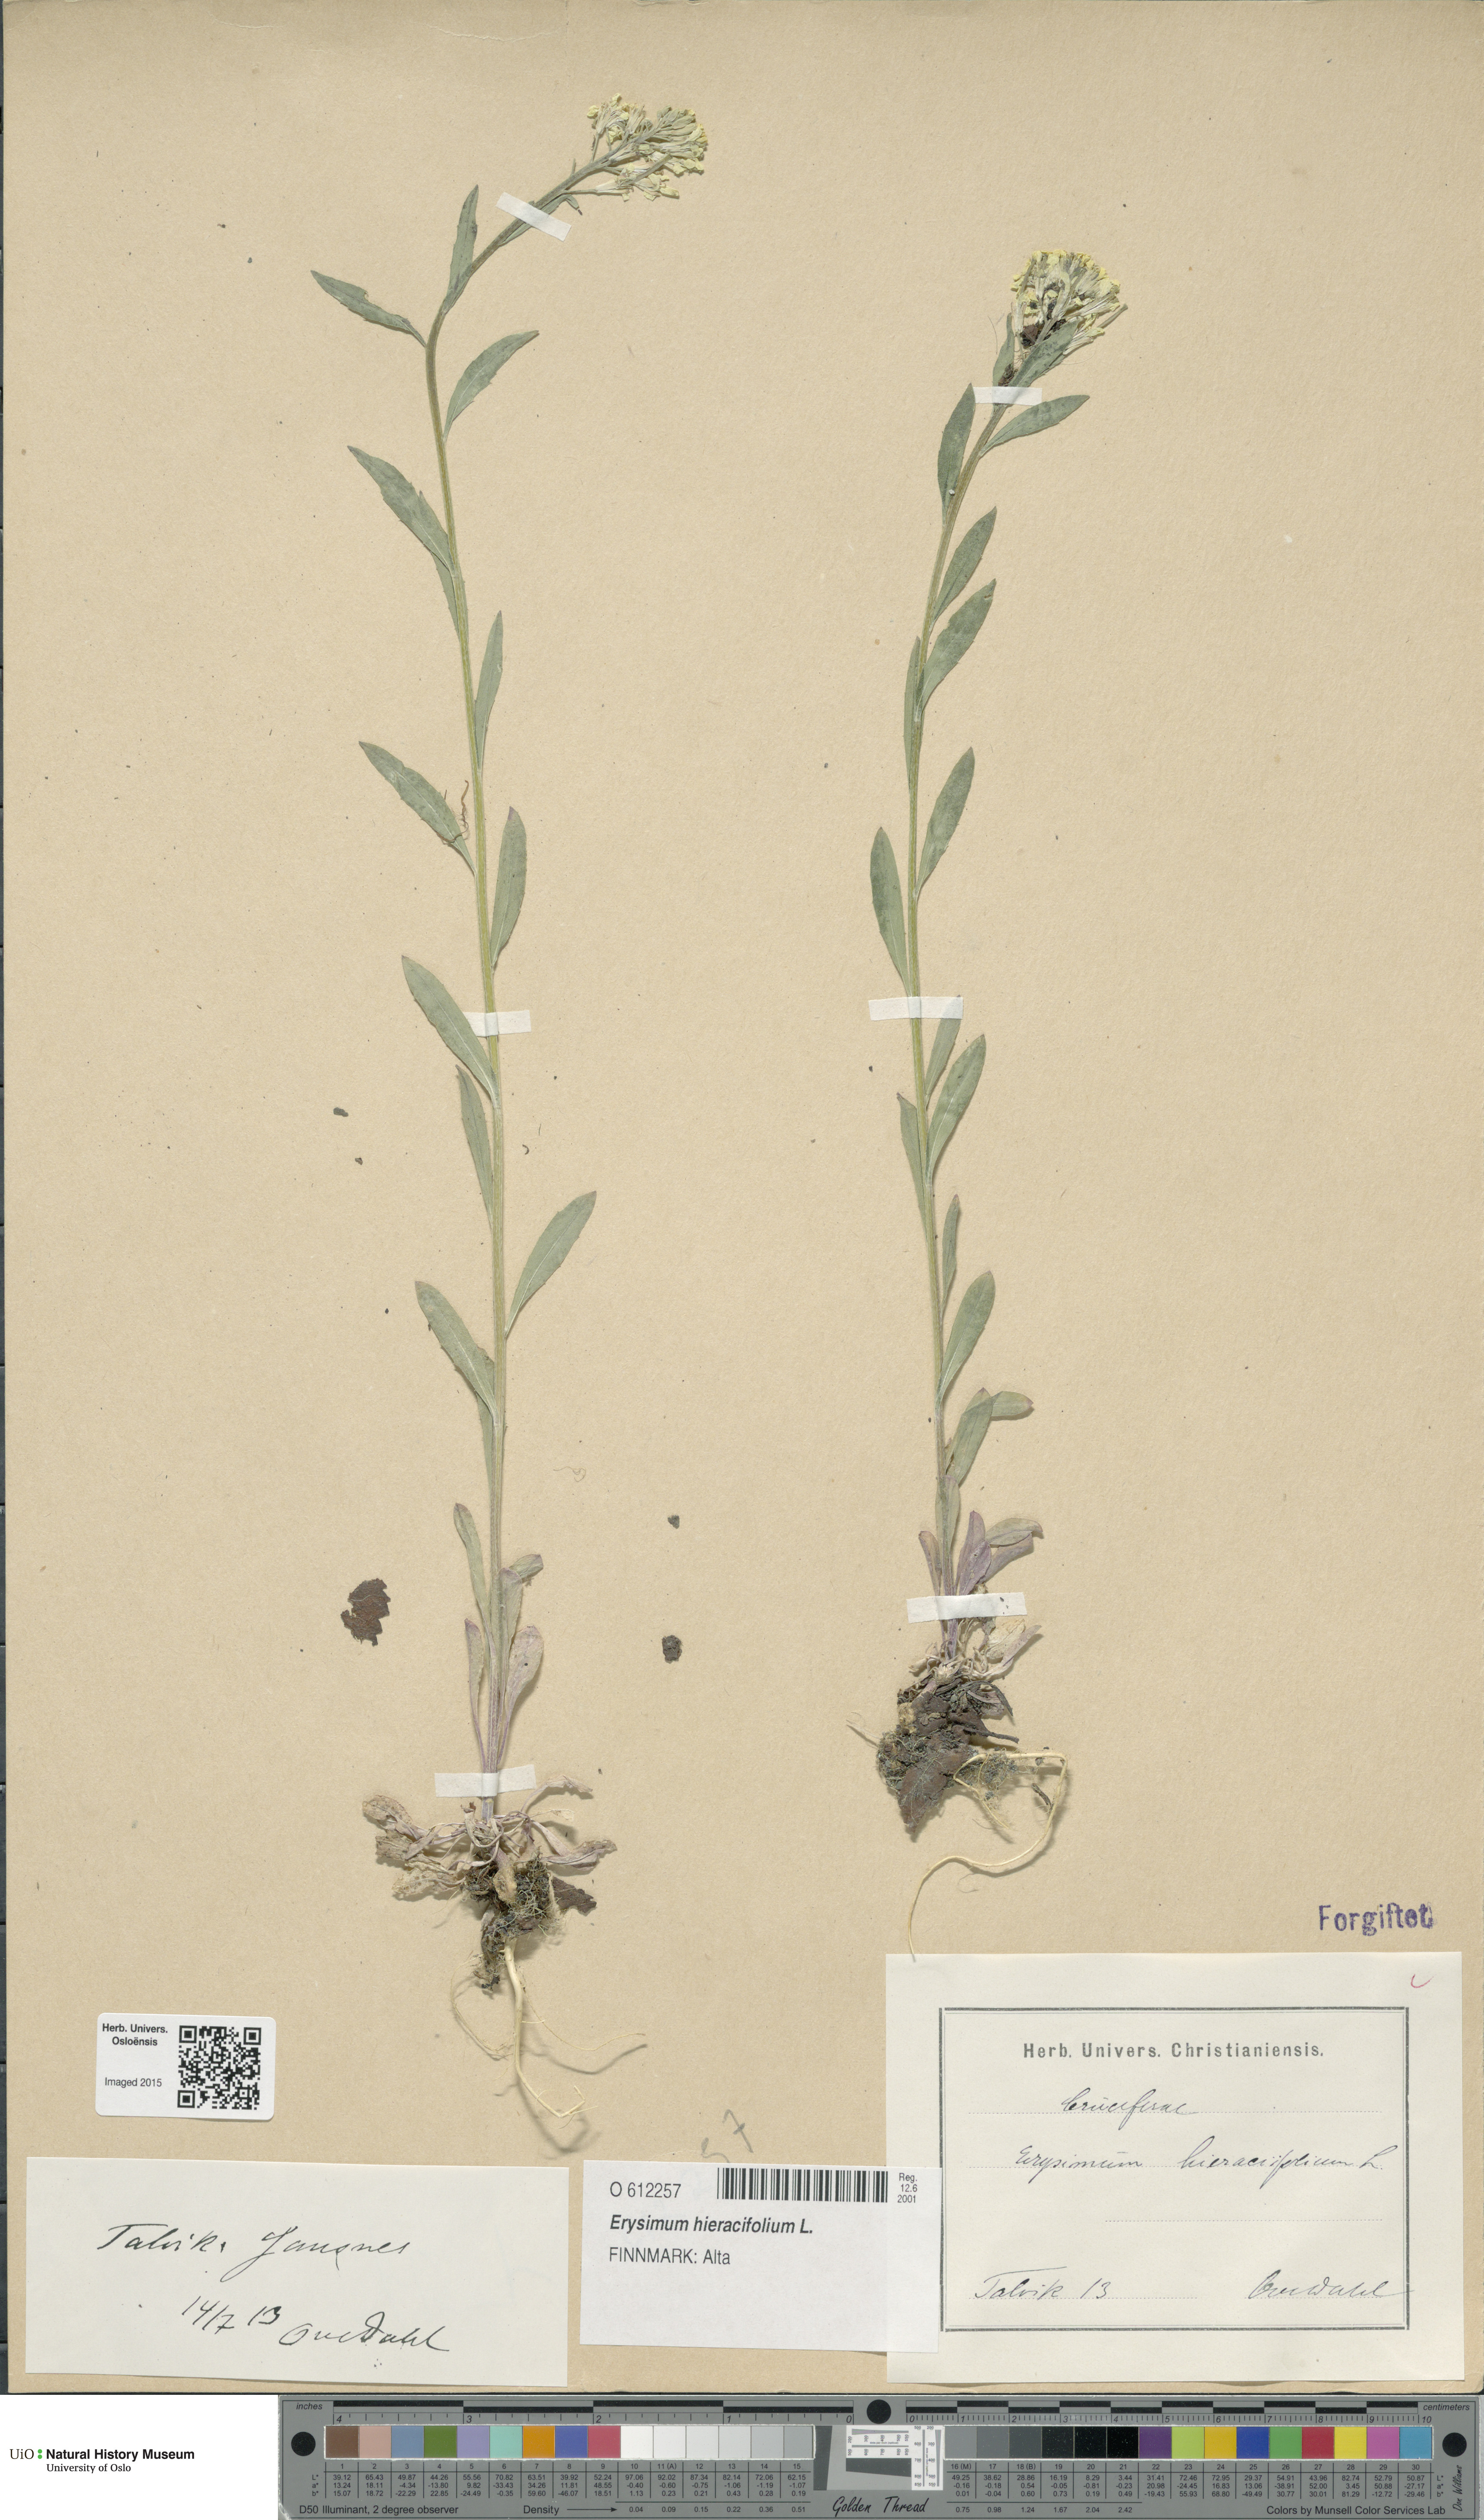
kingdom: Plantae
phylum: Tracheophyta
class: Magnoliopsida
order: Brassicales
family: Brassicaceae
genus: Erysimum
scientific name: Erysimum hieraciifolium
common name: European wallflower
